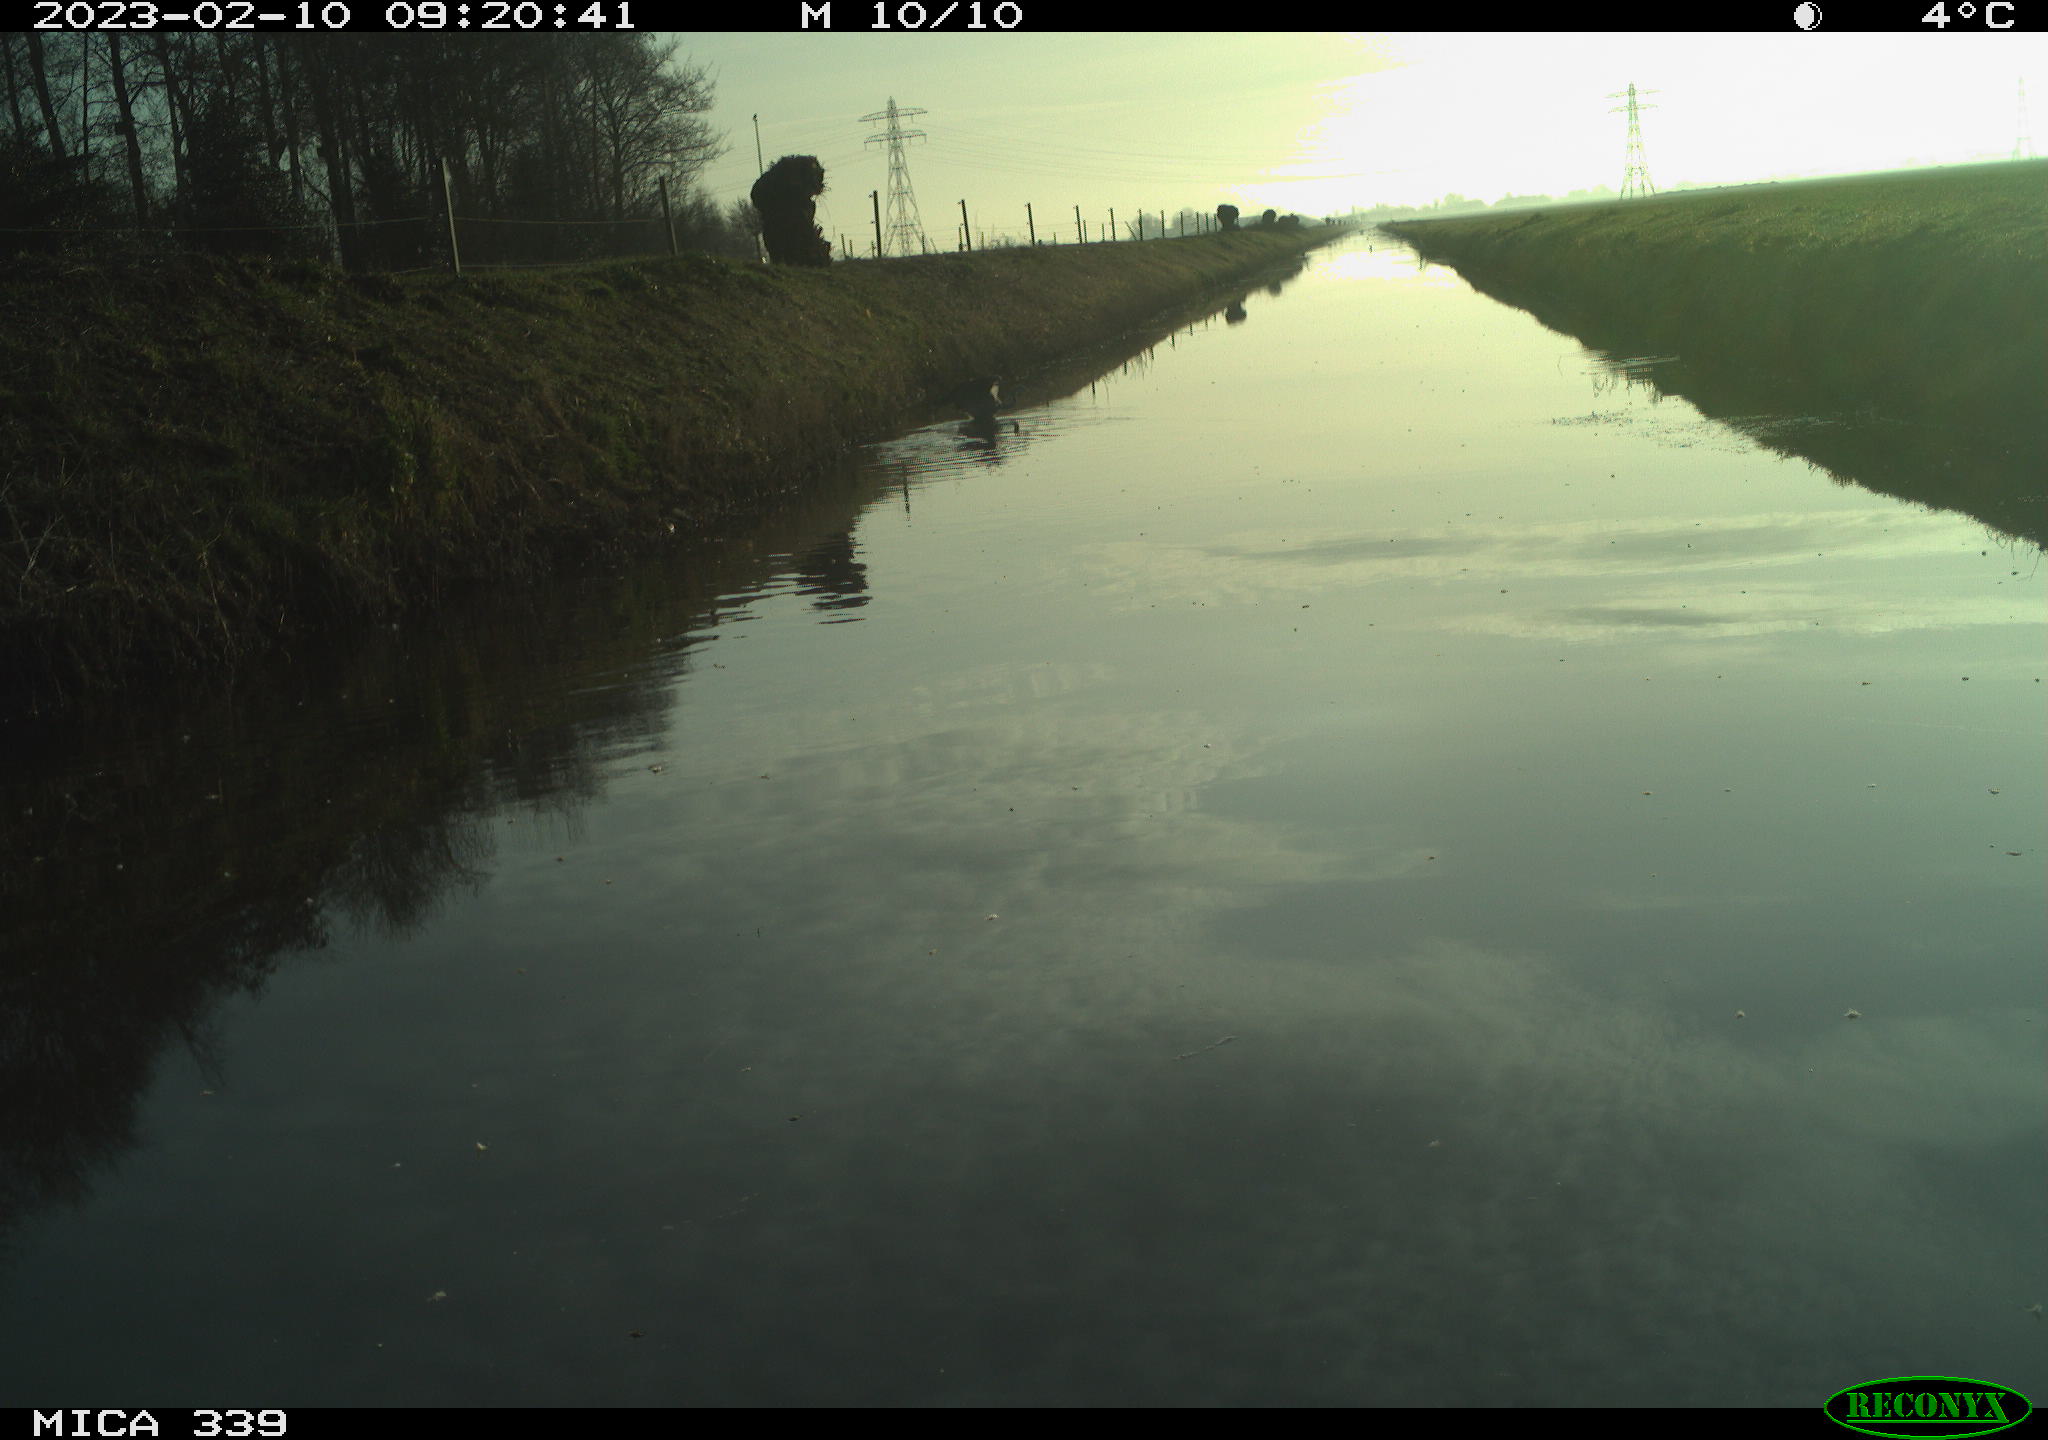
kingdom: Animalia
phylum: Chordata
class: Aves
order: Pelecaniformes
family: Ardeidae
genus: Ardea
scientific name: Ardea cinerea
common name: Grey heron
